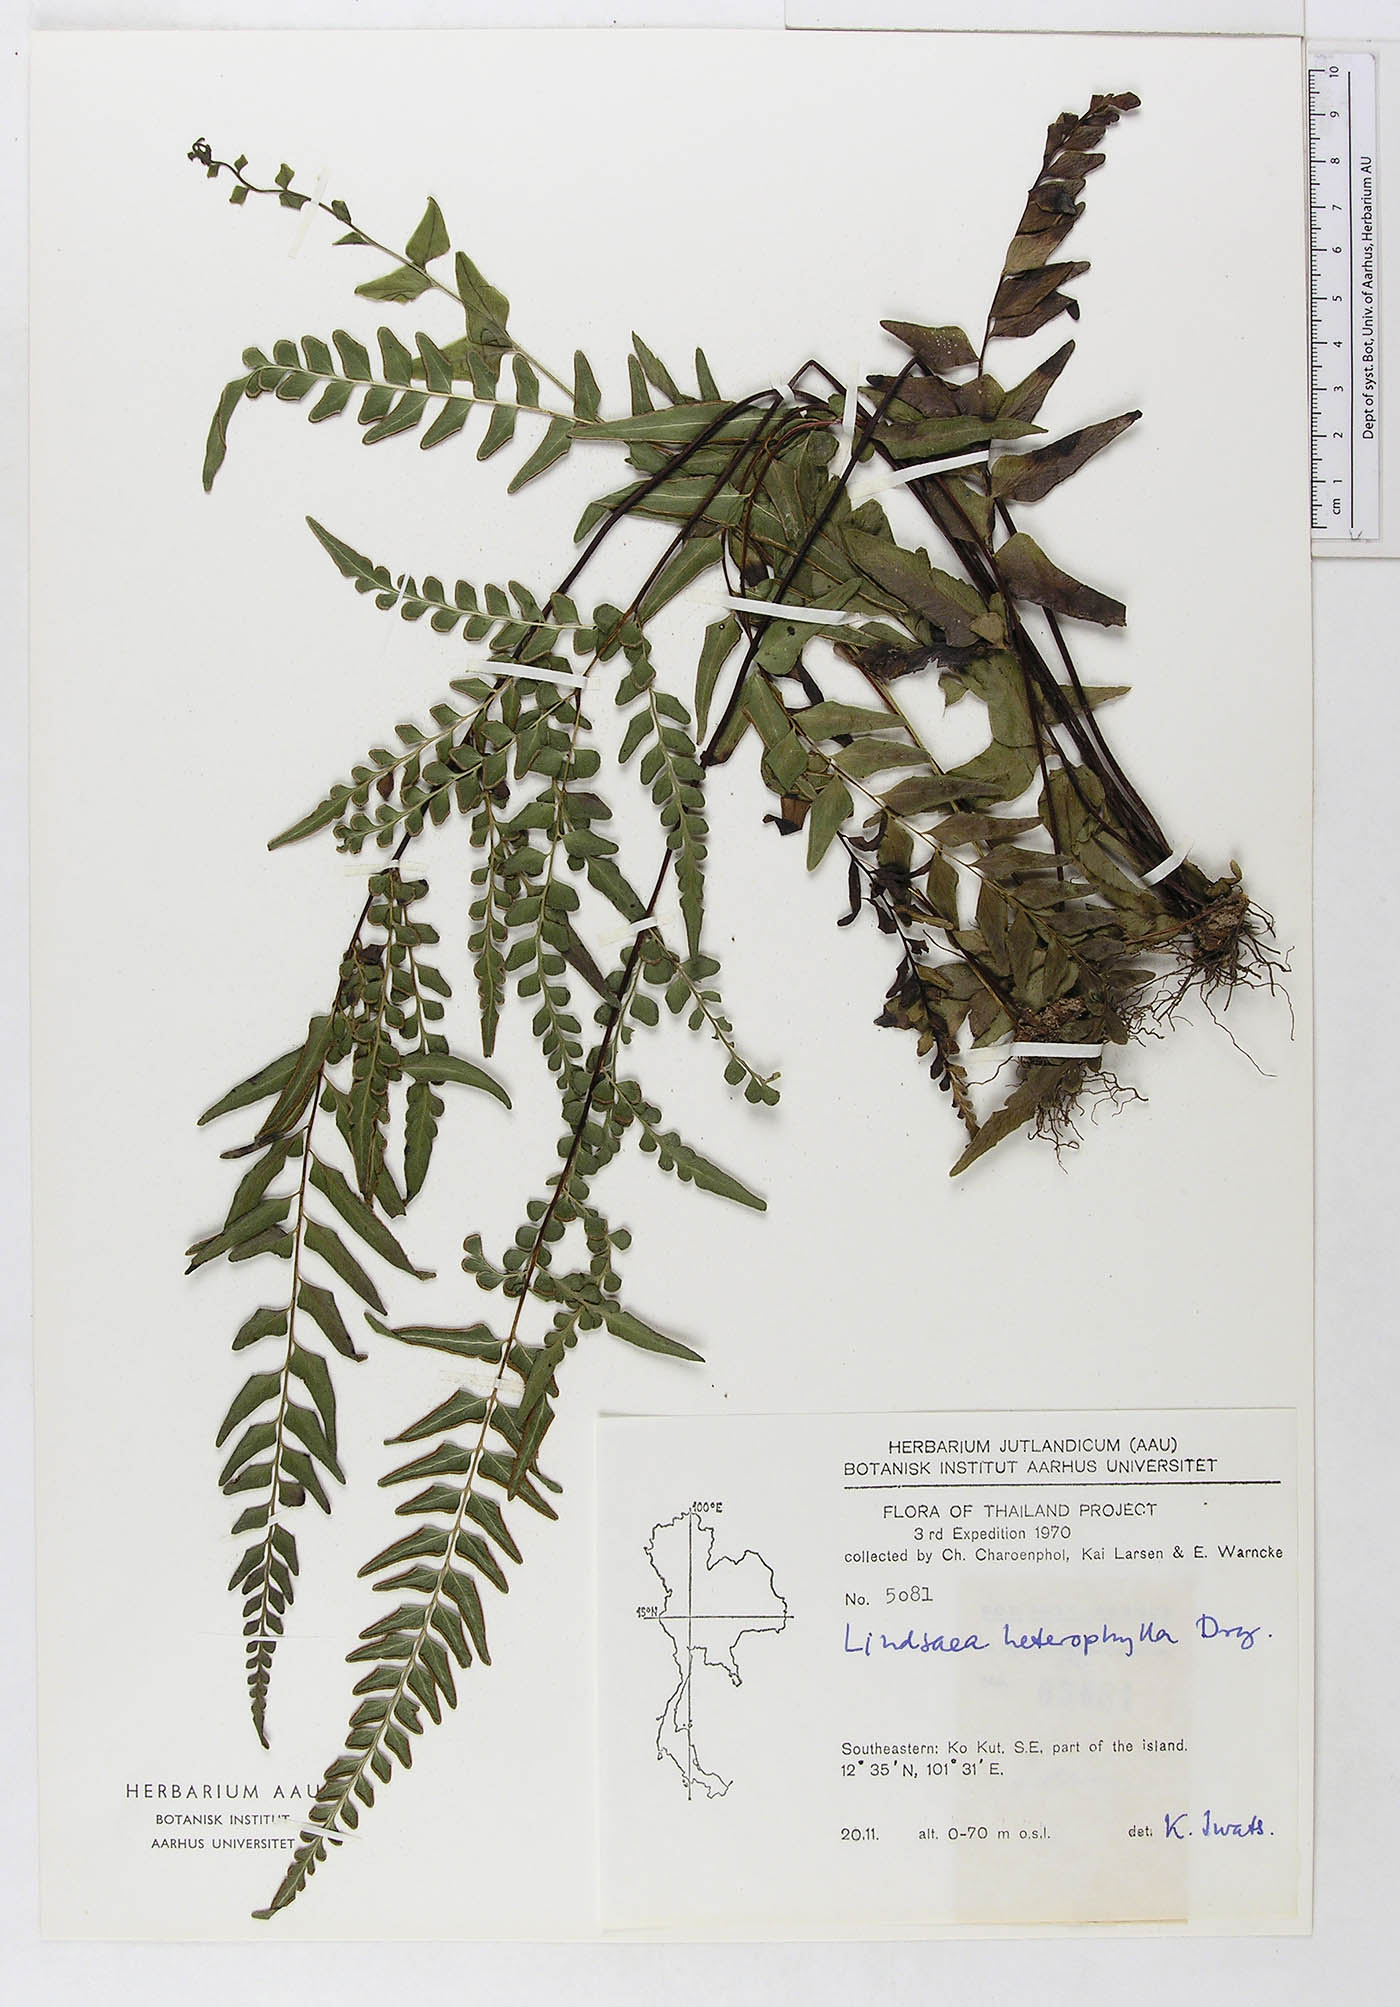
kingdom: Plantae
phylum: Tracheophyta
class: Polypodiopsida
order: Polypodiales
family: Lindsaeaceae
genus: Lindsaea
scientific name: Lindsaea heterophylla
